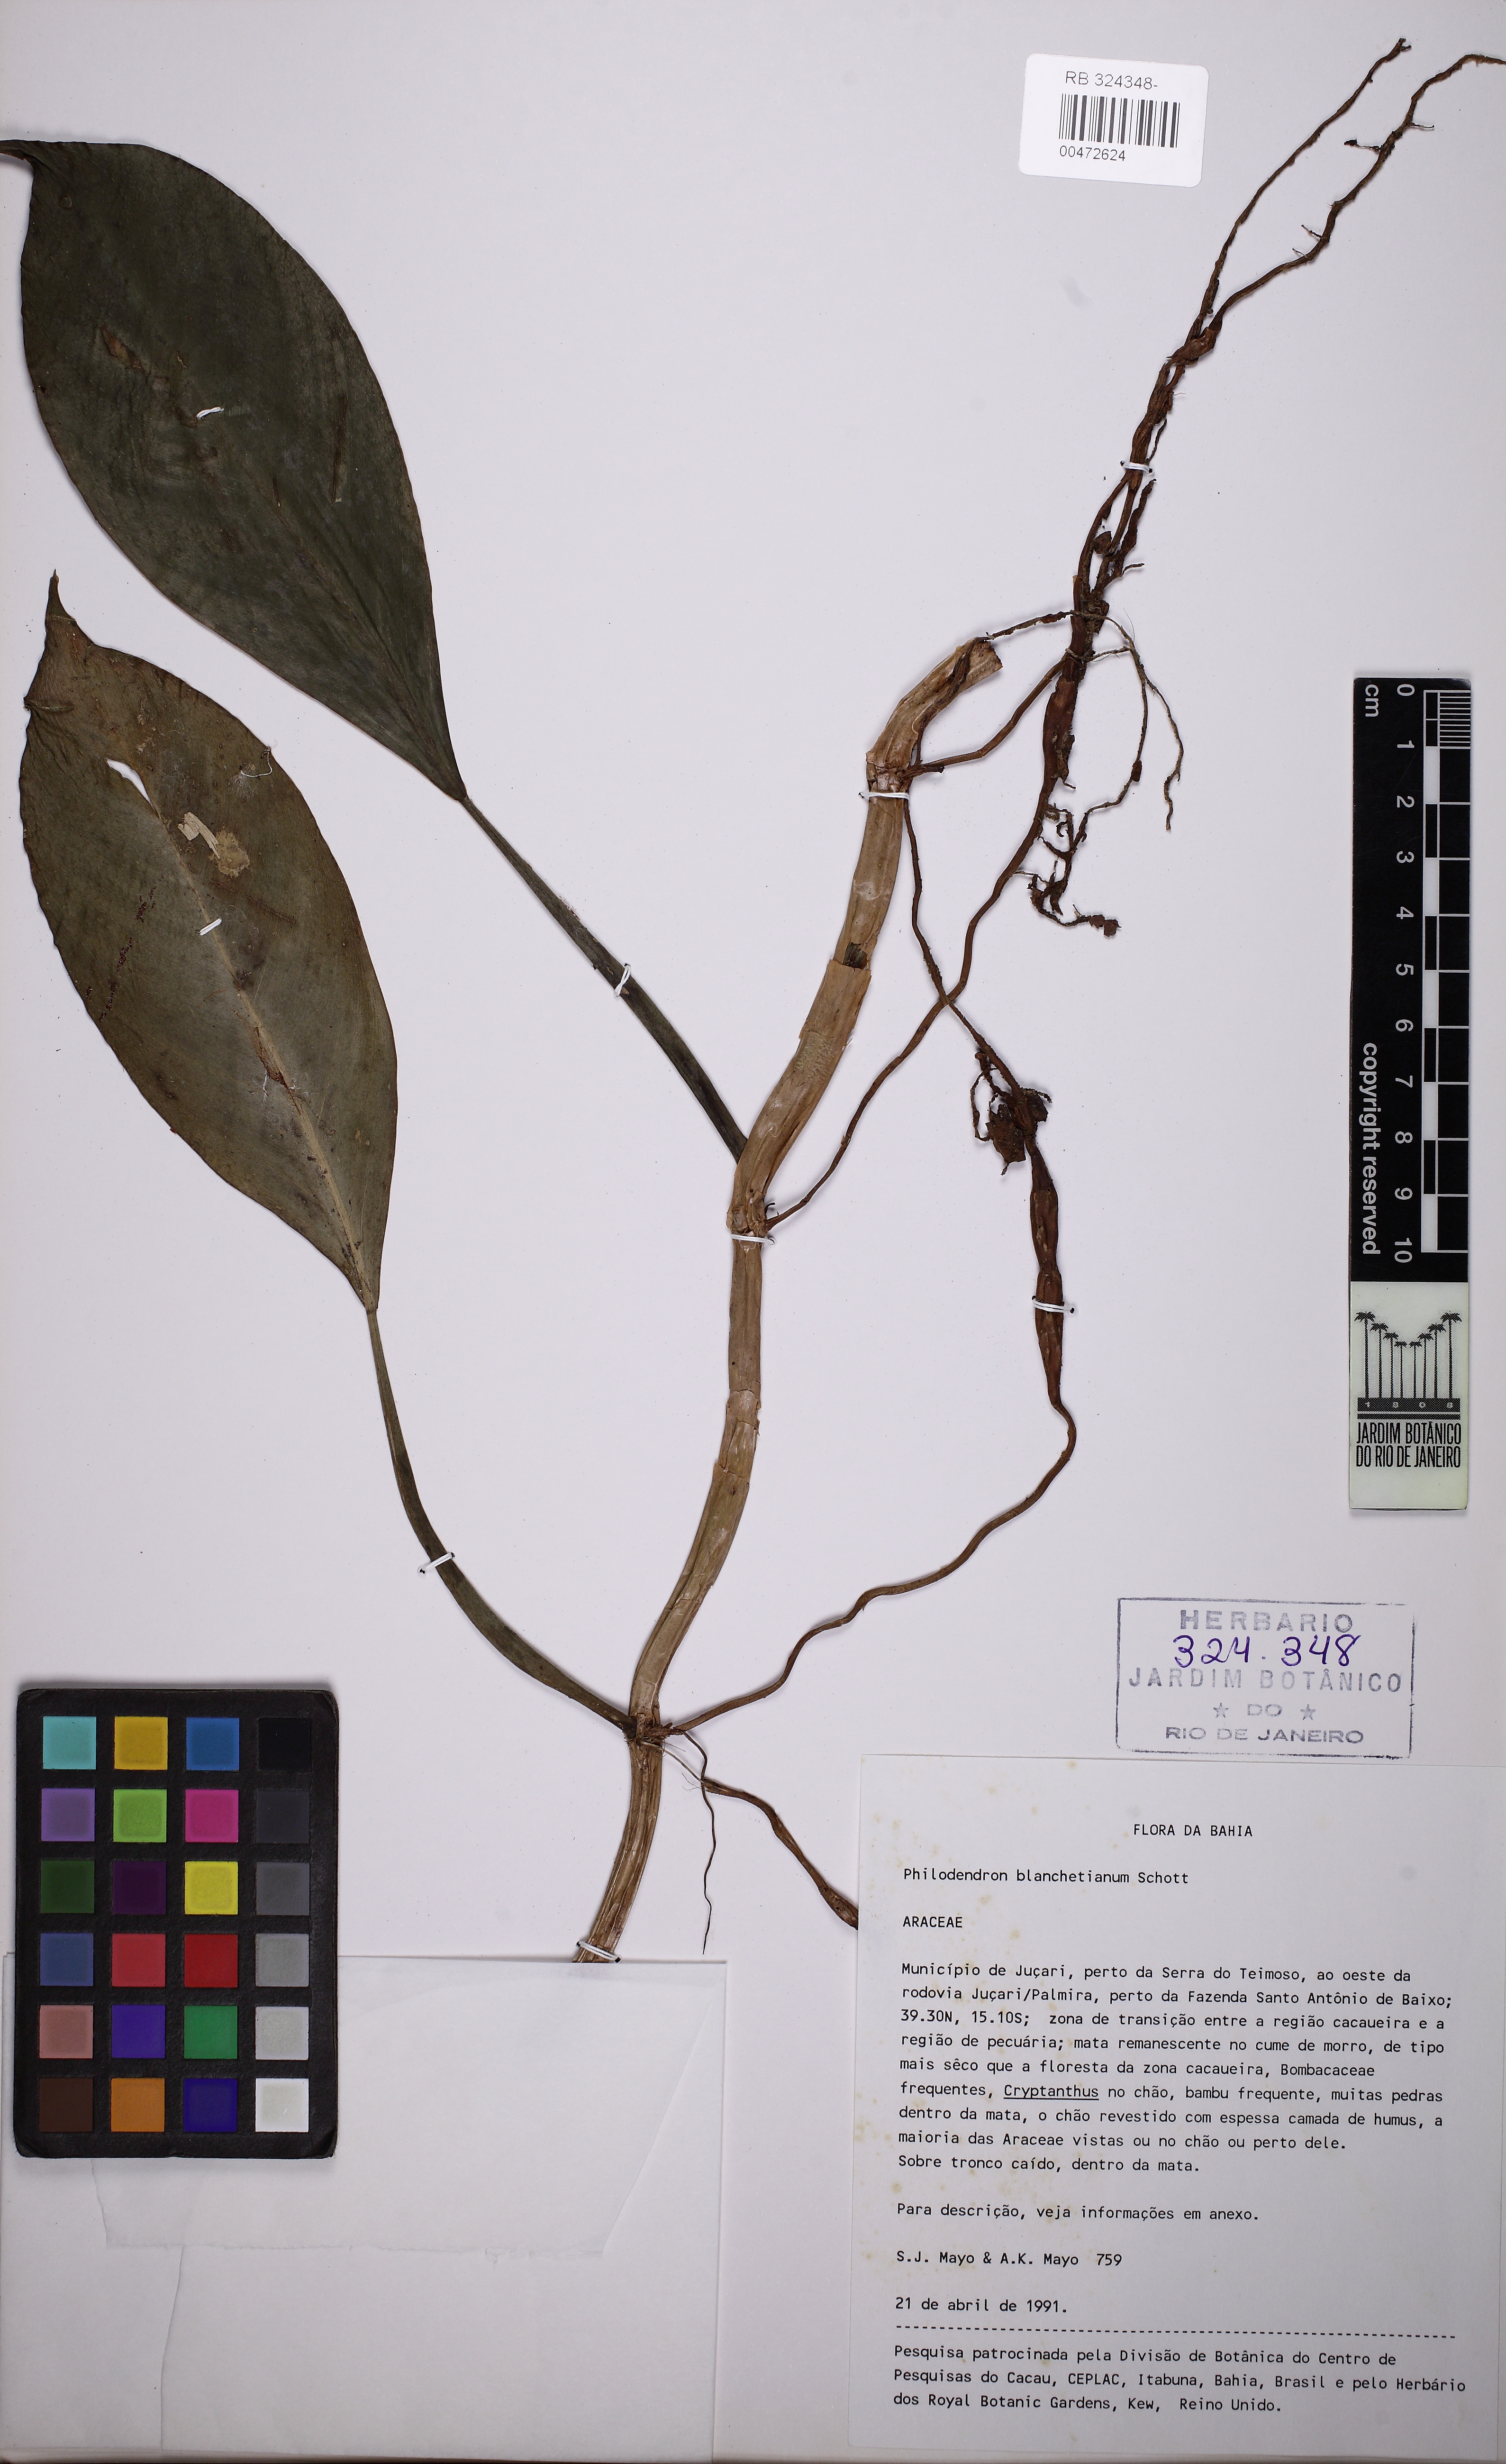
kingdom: Plantae
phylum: Tracheophyta
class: Liliopsida
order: Alismatales
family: Araceae
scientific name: Araceae
